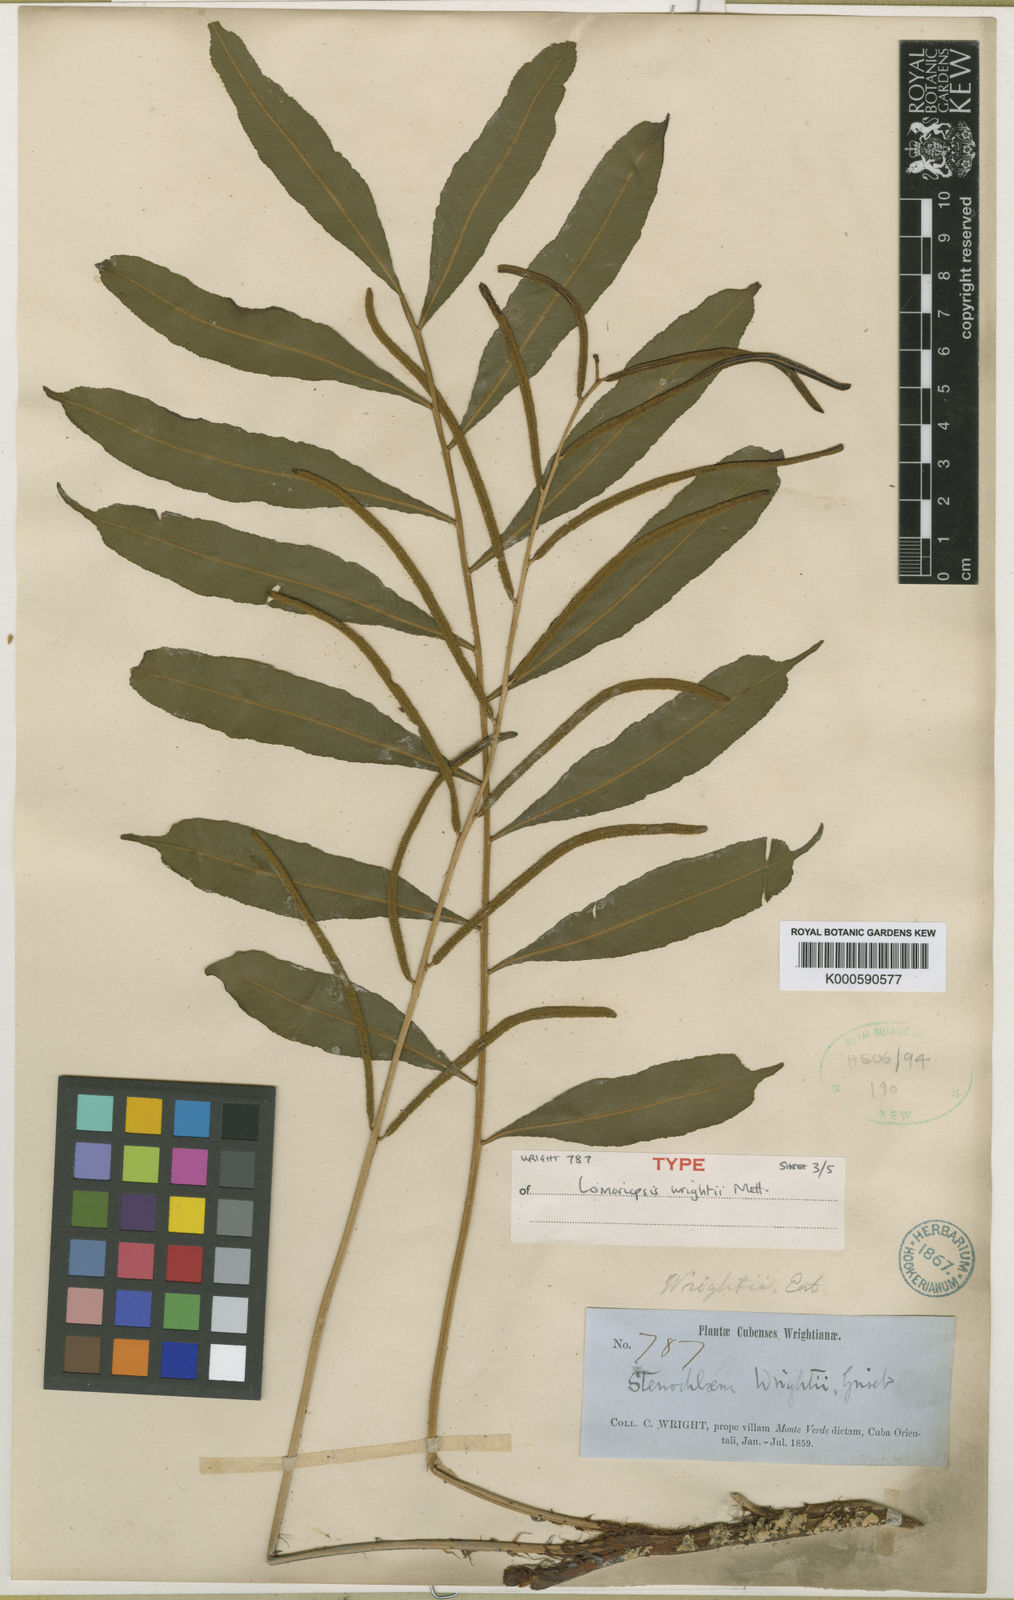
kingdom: Plantae
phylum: Tracheophyta
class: Polypodiopsida
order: Polypodiales
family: Lomariopsidaceae
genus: Lomariopsis
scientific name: Lomariopsis
